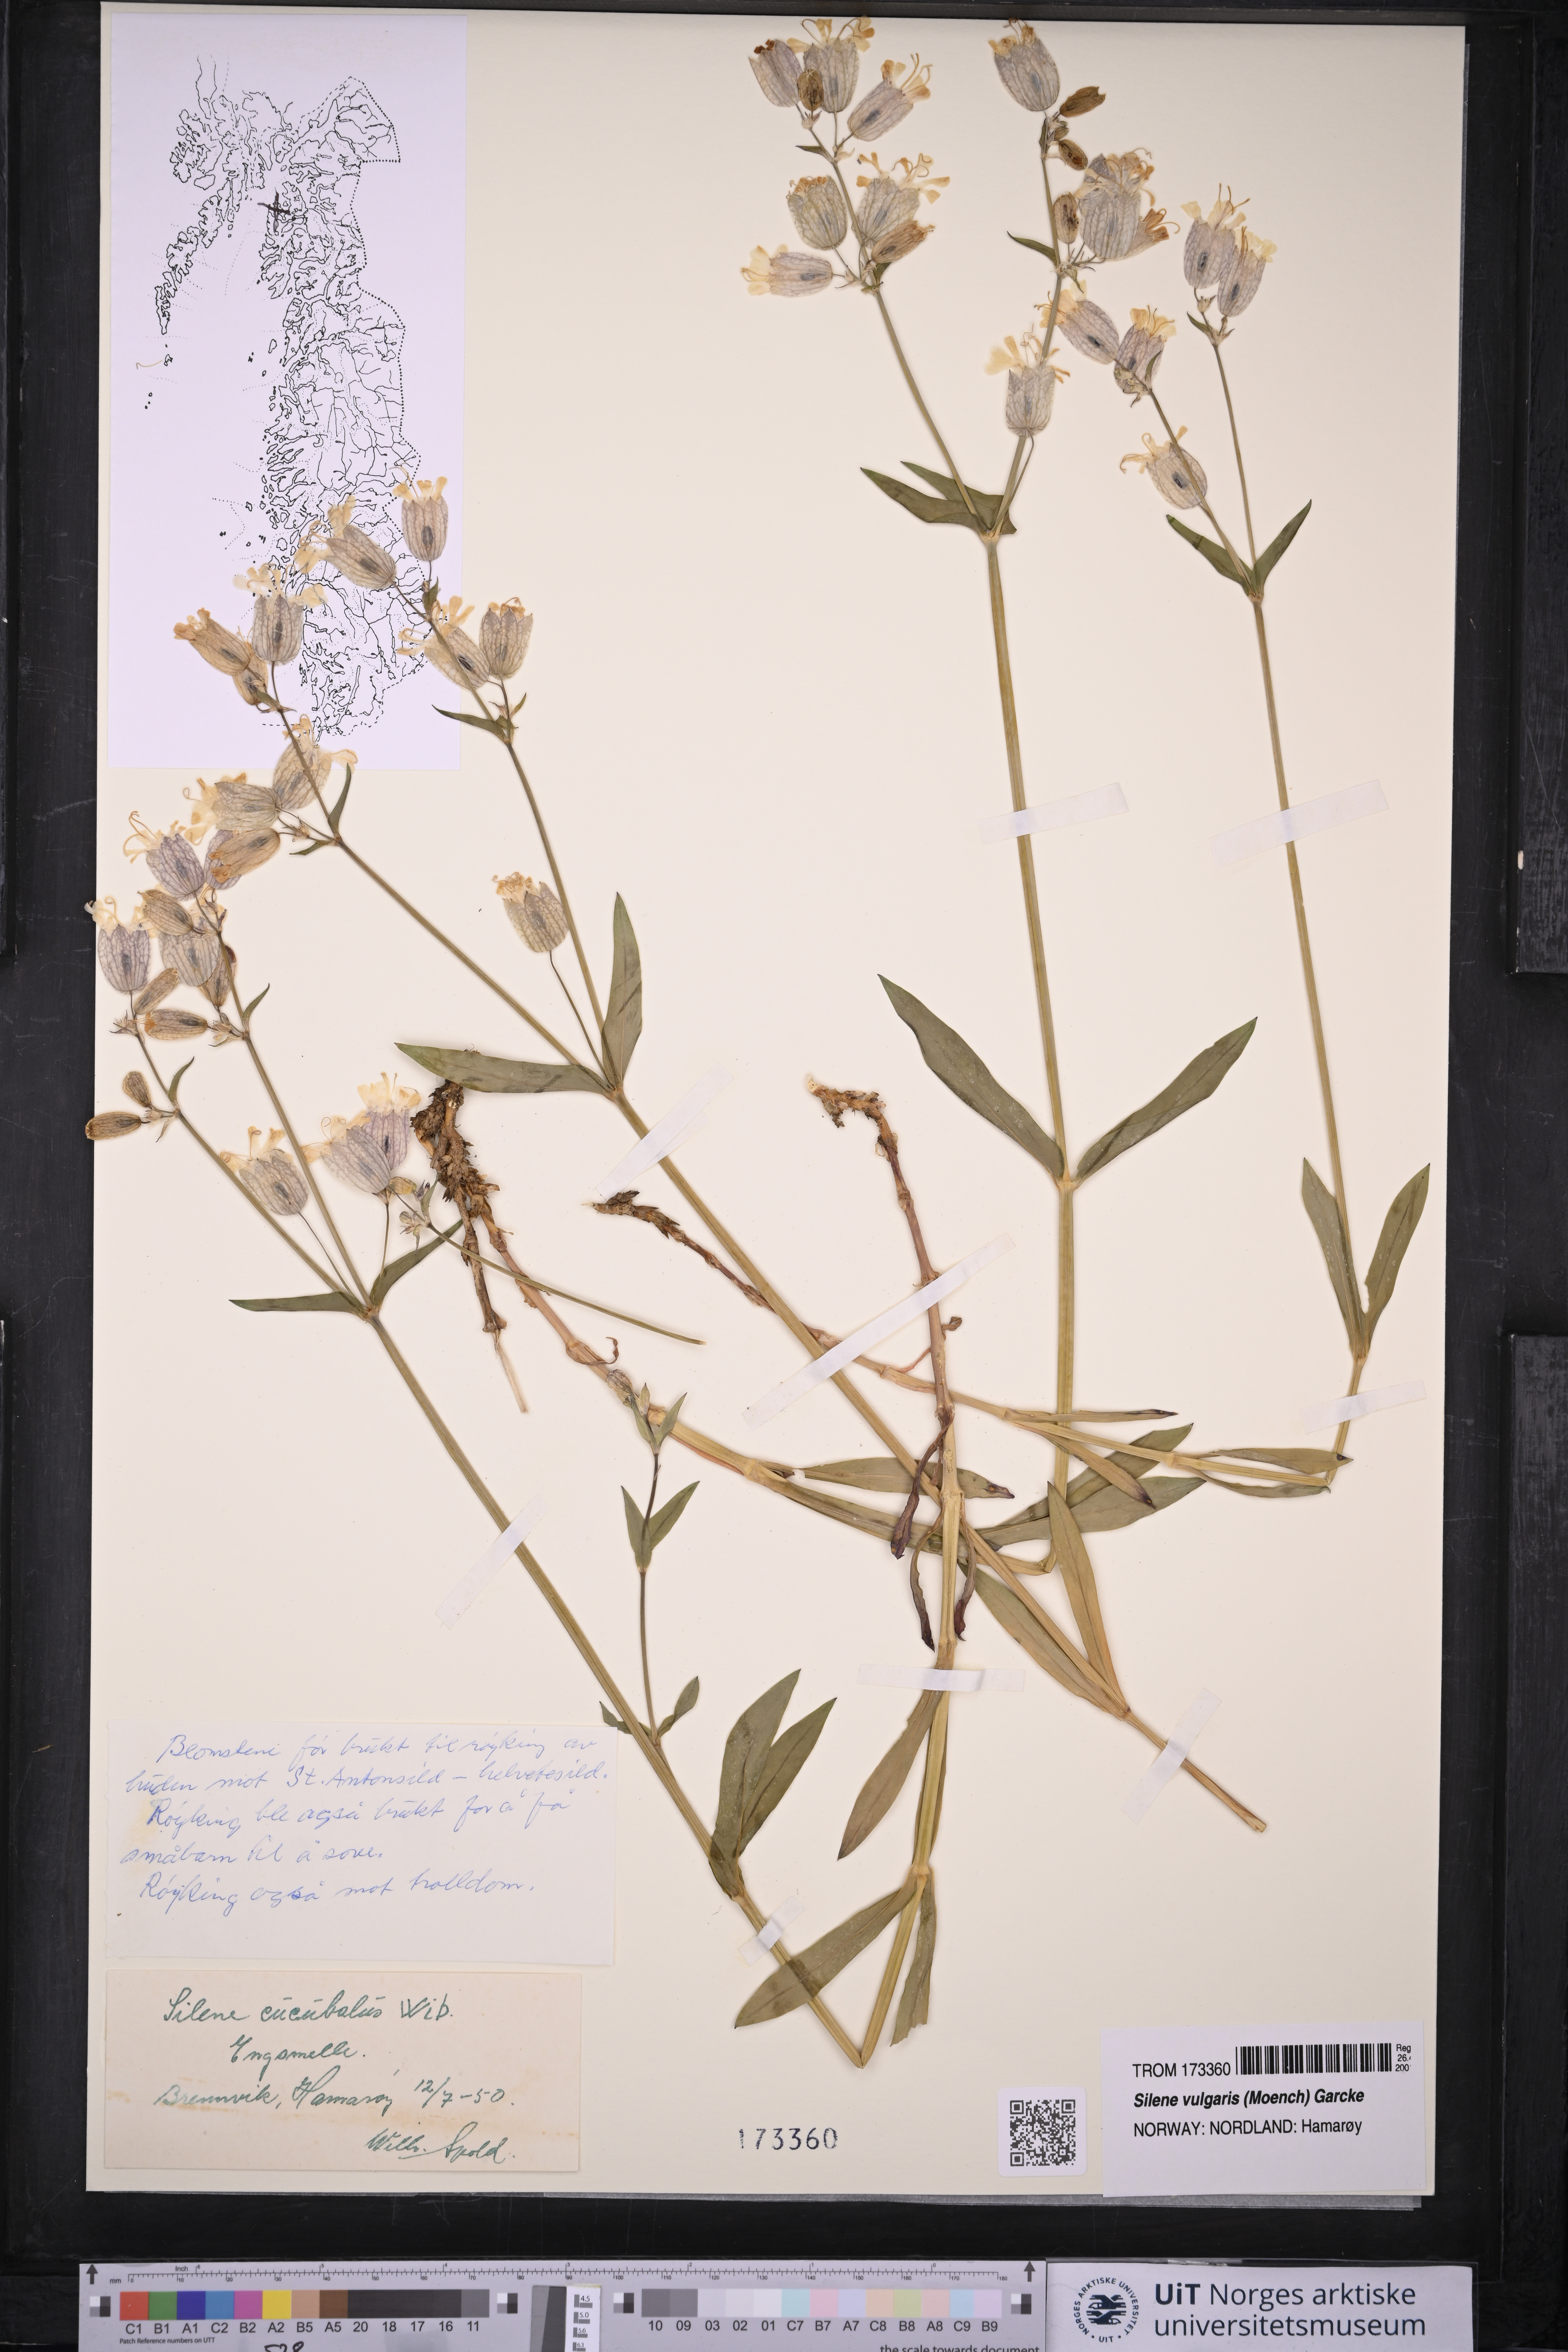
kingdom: Plantae
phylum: Tracheophyta
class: Magnoliopsida
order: Caryophyllales
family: Caryophyllaceae
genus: Silene
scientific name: Silene vulgaris
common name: Bladder campion
